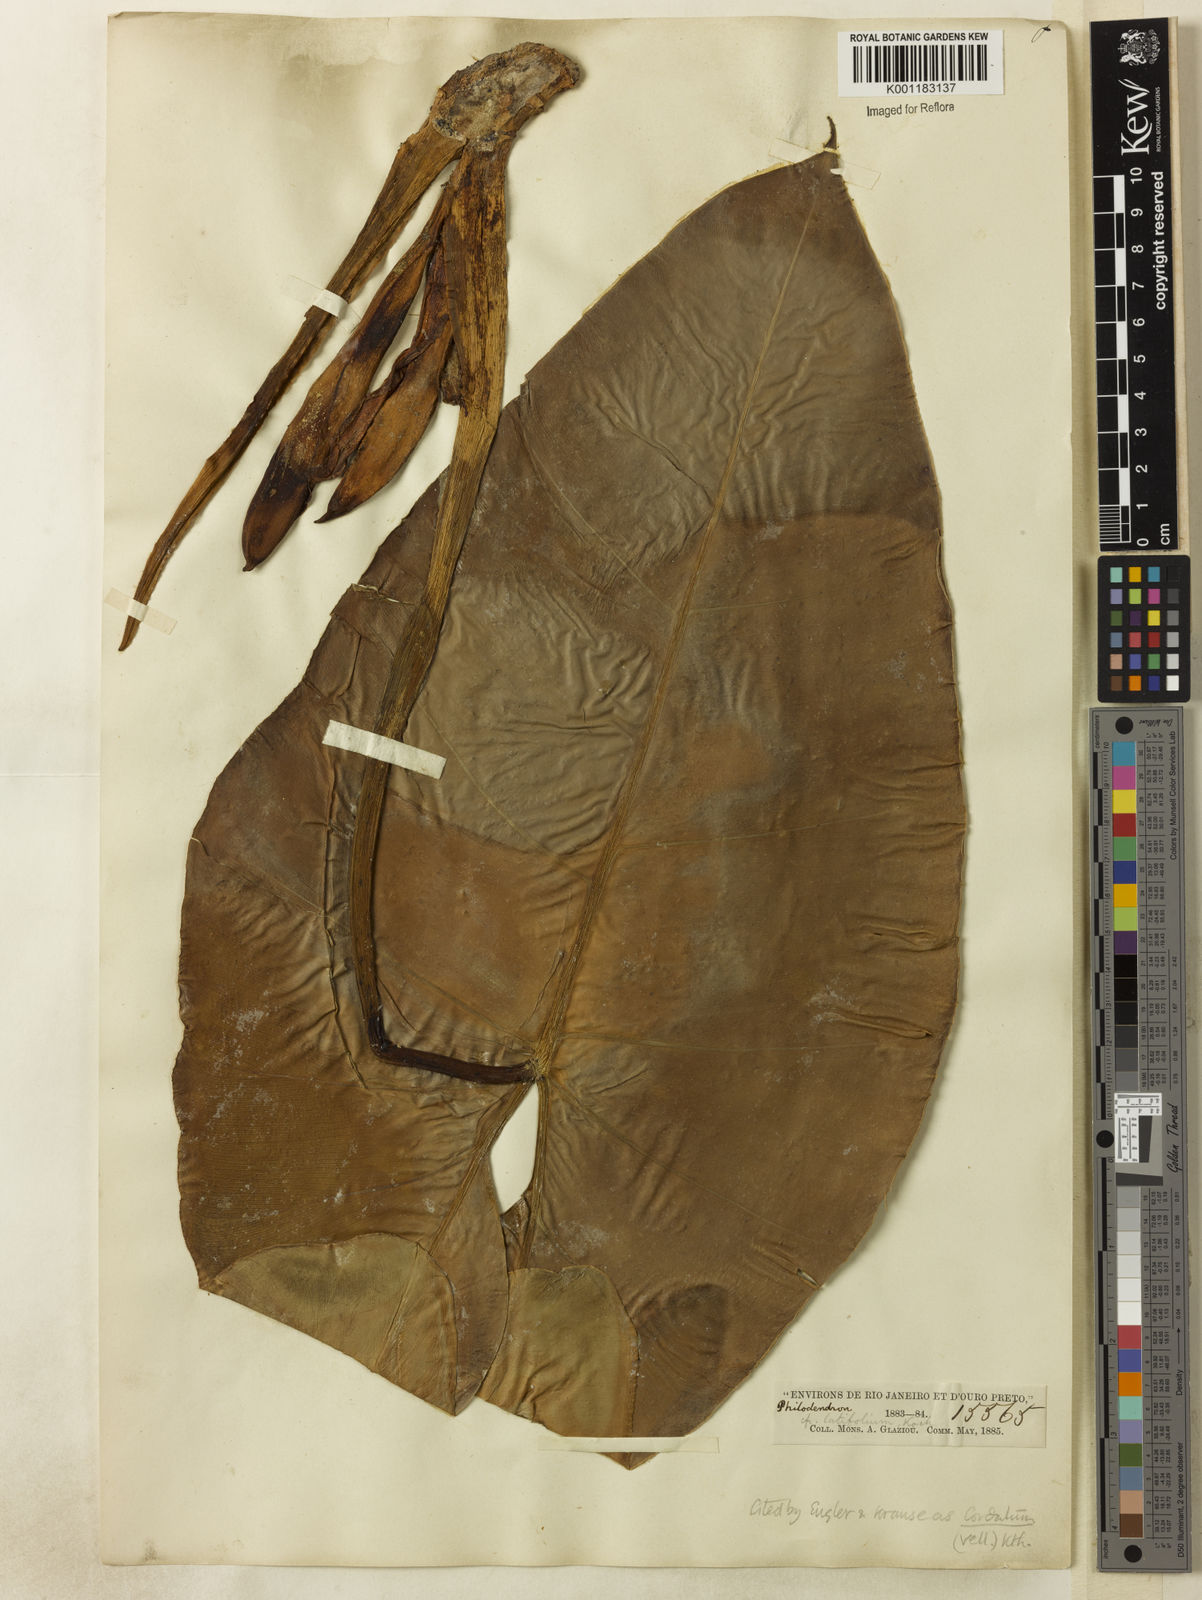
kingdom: Plantae
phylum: Tracheophyta
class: Liliopsida
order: Alismatales
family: Araceae
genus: Philodendron
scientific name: Philodendron cordatum
